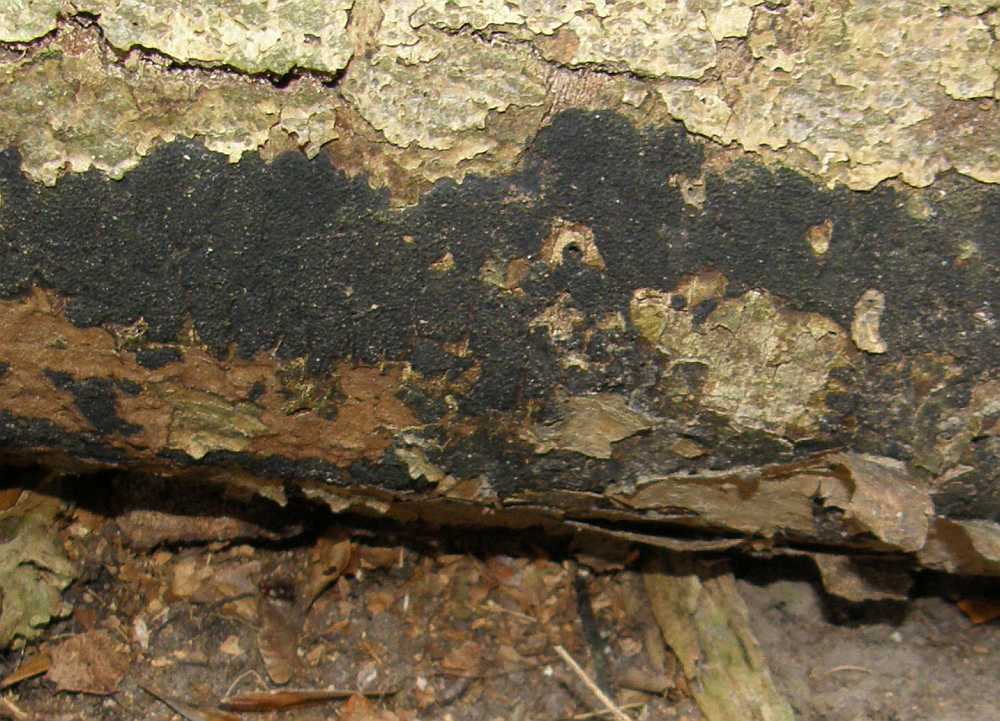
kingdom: Fungi
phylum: Ascomycota
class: Sordariomycetes
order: Xylariales
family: Diatrypaceae
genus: Eutypa
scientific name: Eutypa spinosa
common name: grov kulskorpe
